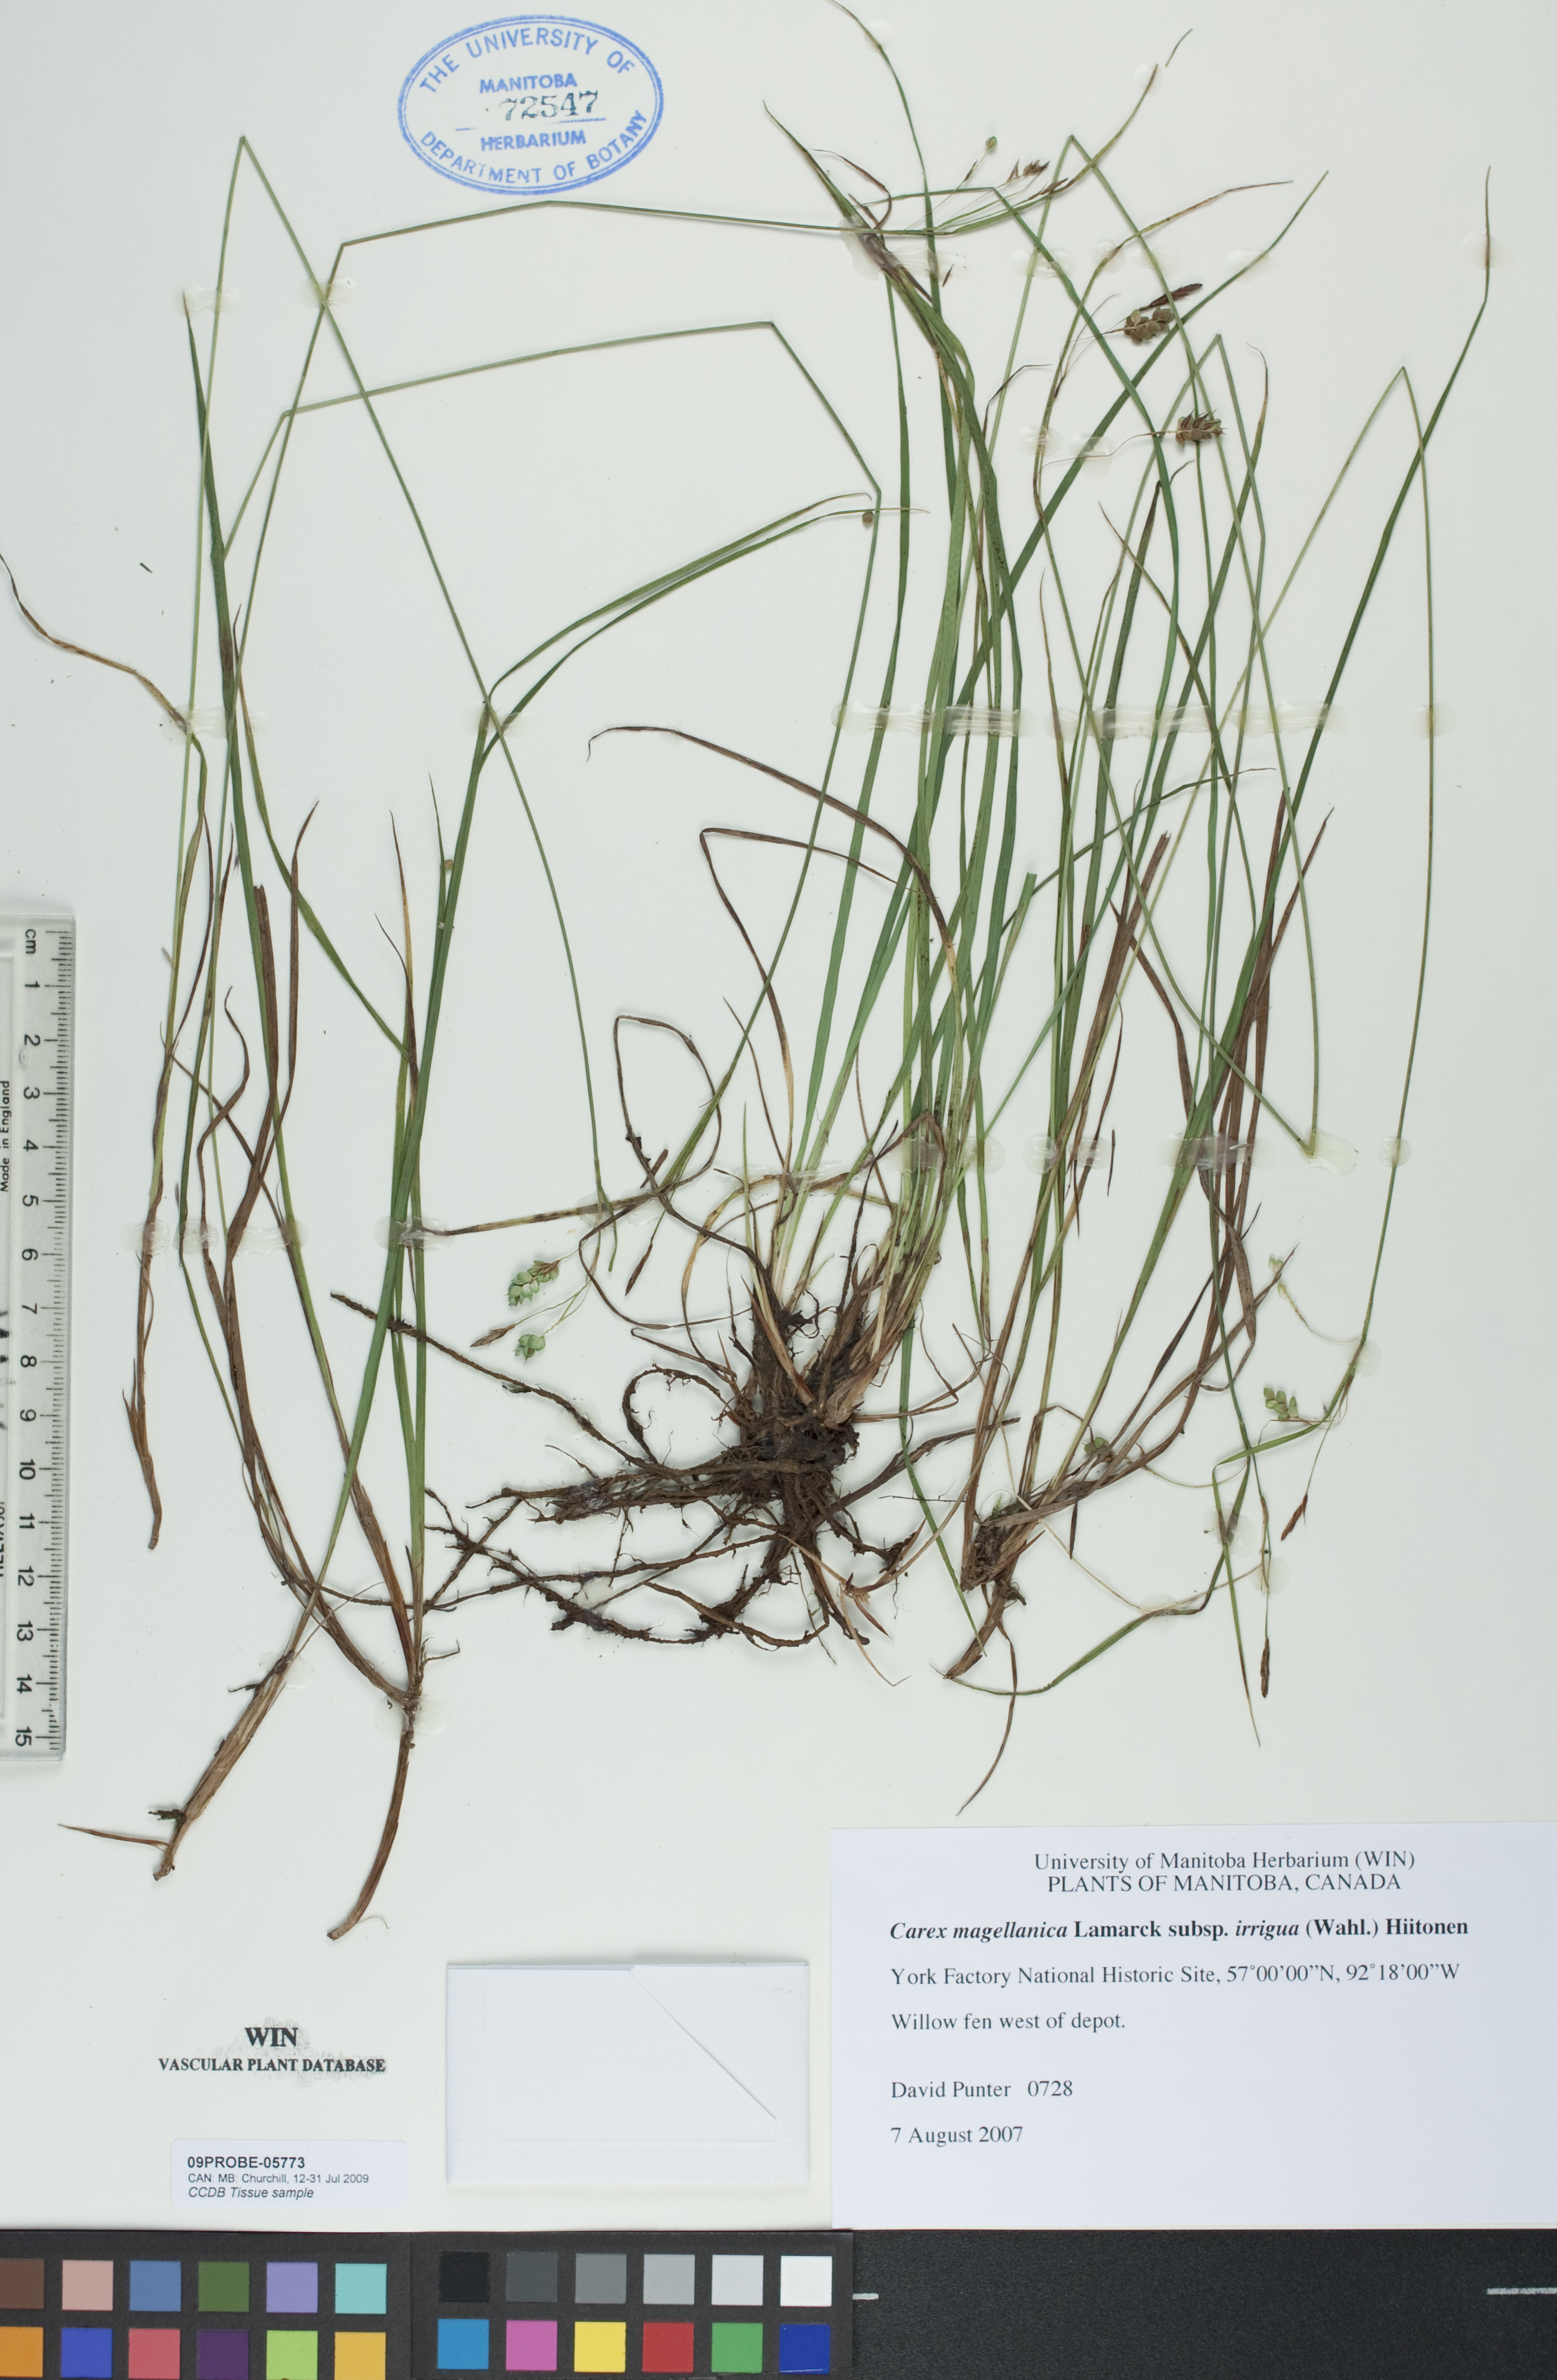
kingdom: Plantae
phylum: Tracheophyta
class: Liliopsida
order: Poales
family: Cyperaceae
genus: Carex
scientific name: Carex magellanica
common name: Bog sedge
